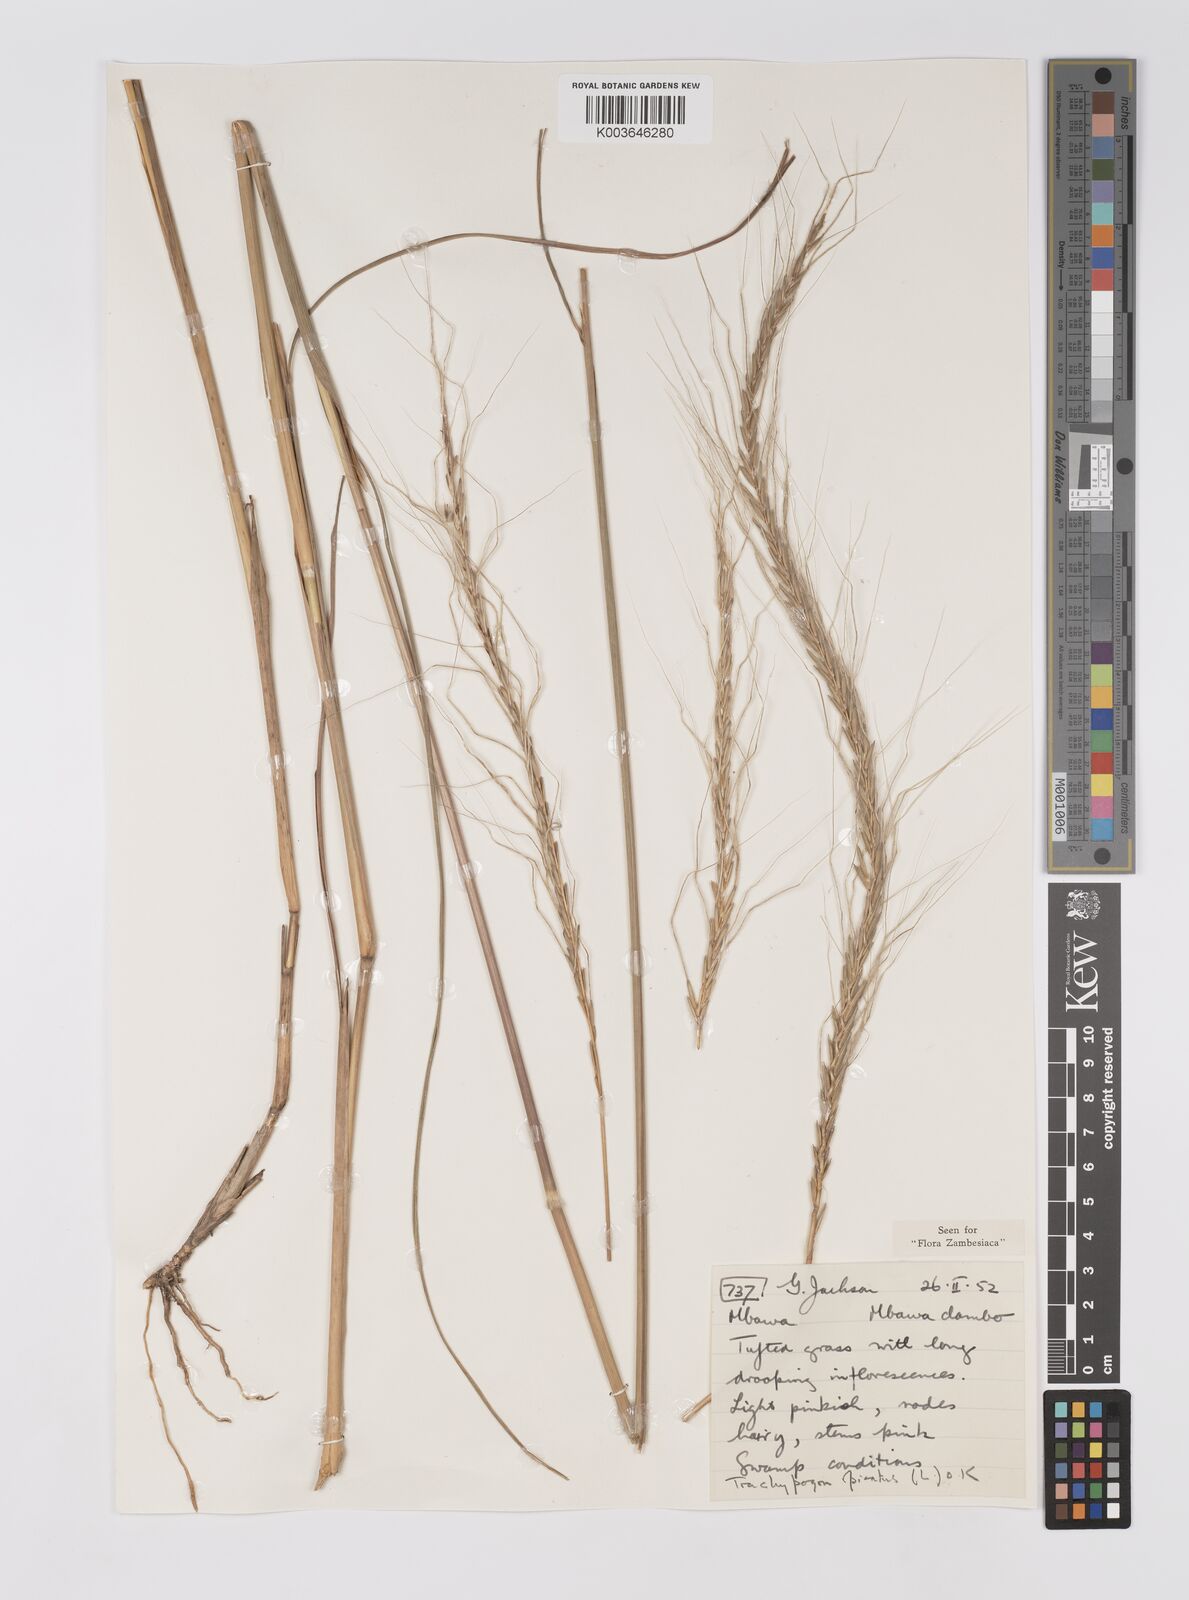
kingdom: Plantae
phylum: Tracheophyta
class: Liliopsida
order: Poales
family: Poaceae
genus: Trachypogon
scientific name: Trachypogon spicatus
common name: Crinkle-awn
